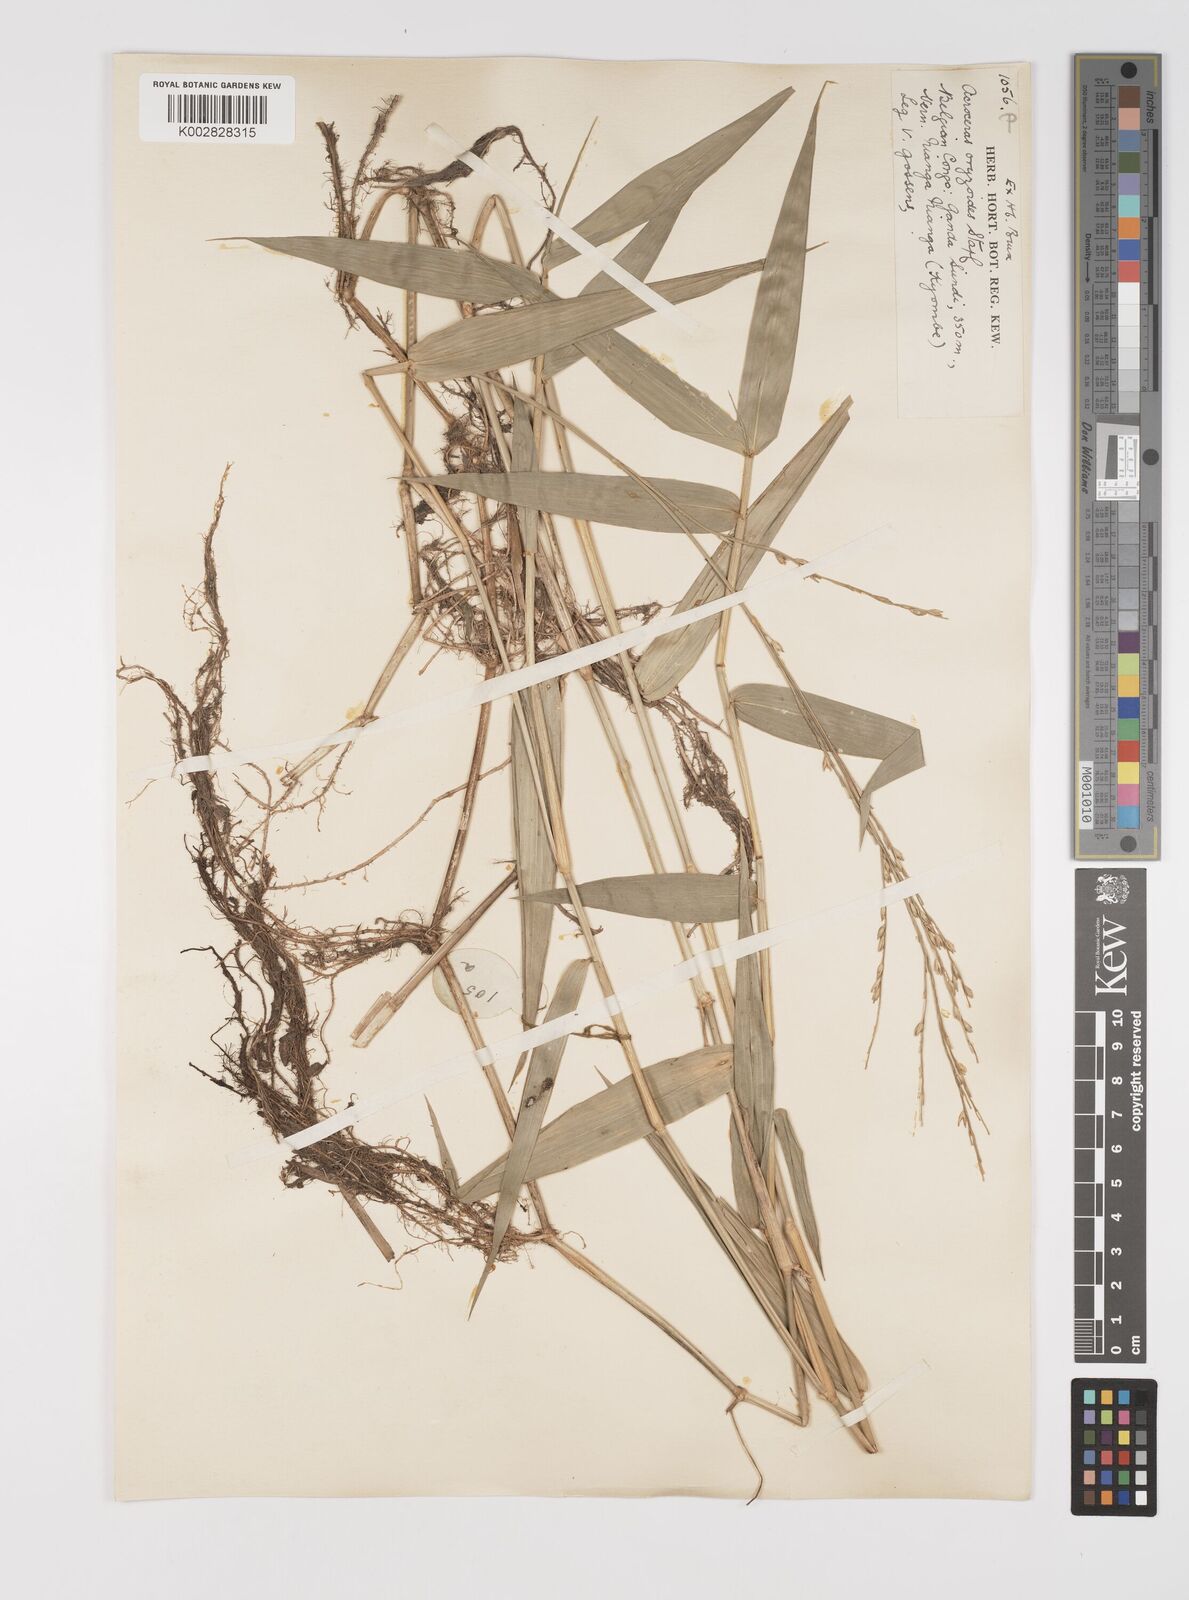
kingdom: Plantae
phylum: Tracheophyta
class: Liliopsida
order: Poales
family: Poaceae
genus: Acroceras
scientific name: Acroceras zizanioides
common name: Oat grass
